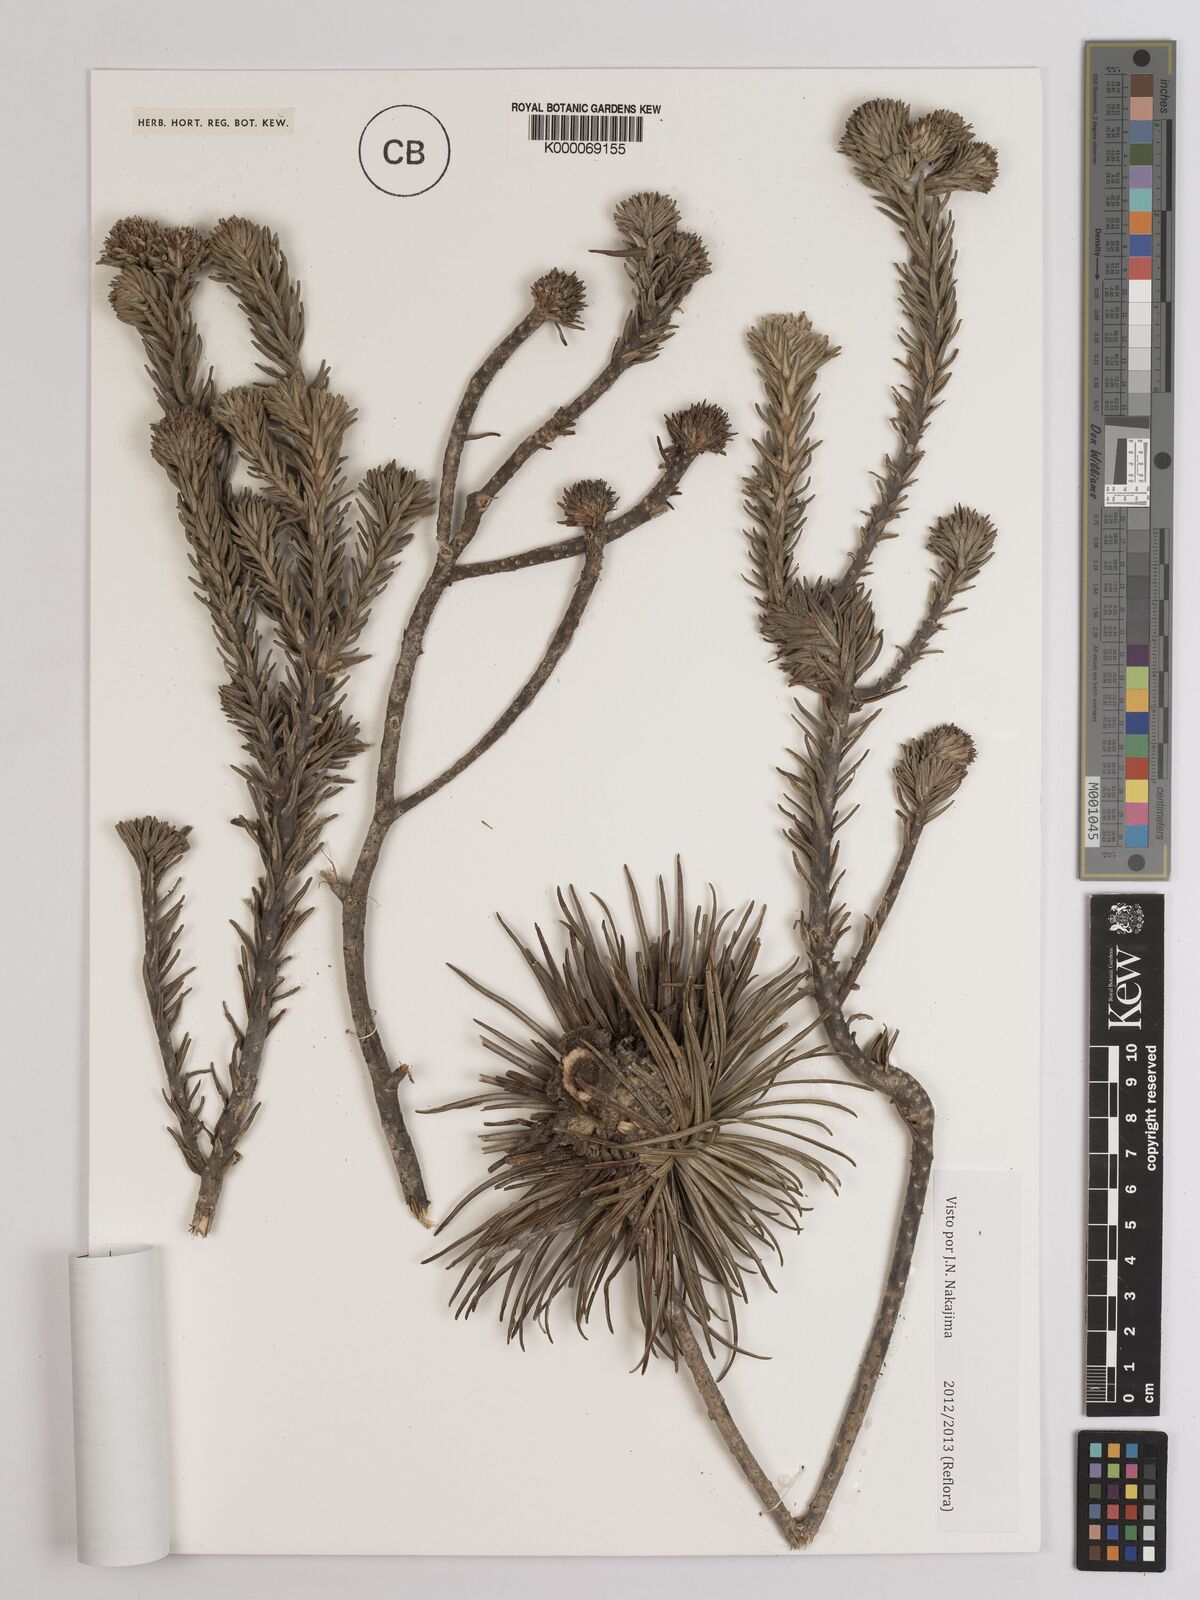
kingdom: Plantae
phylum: Tracheophyta
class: Magnoliopsida
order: Asterales
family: Asteraceae
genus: Lychnophora
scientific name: Lychnophora uniflora
